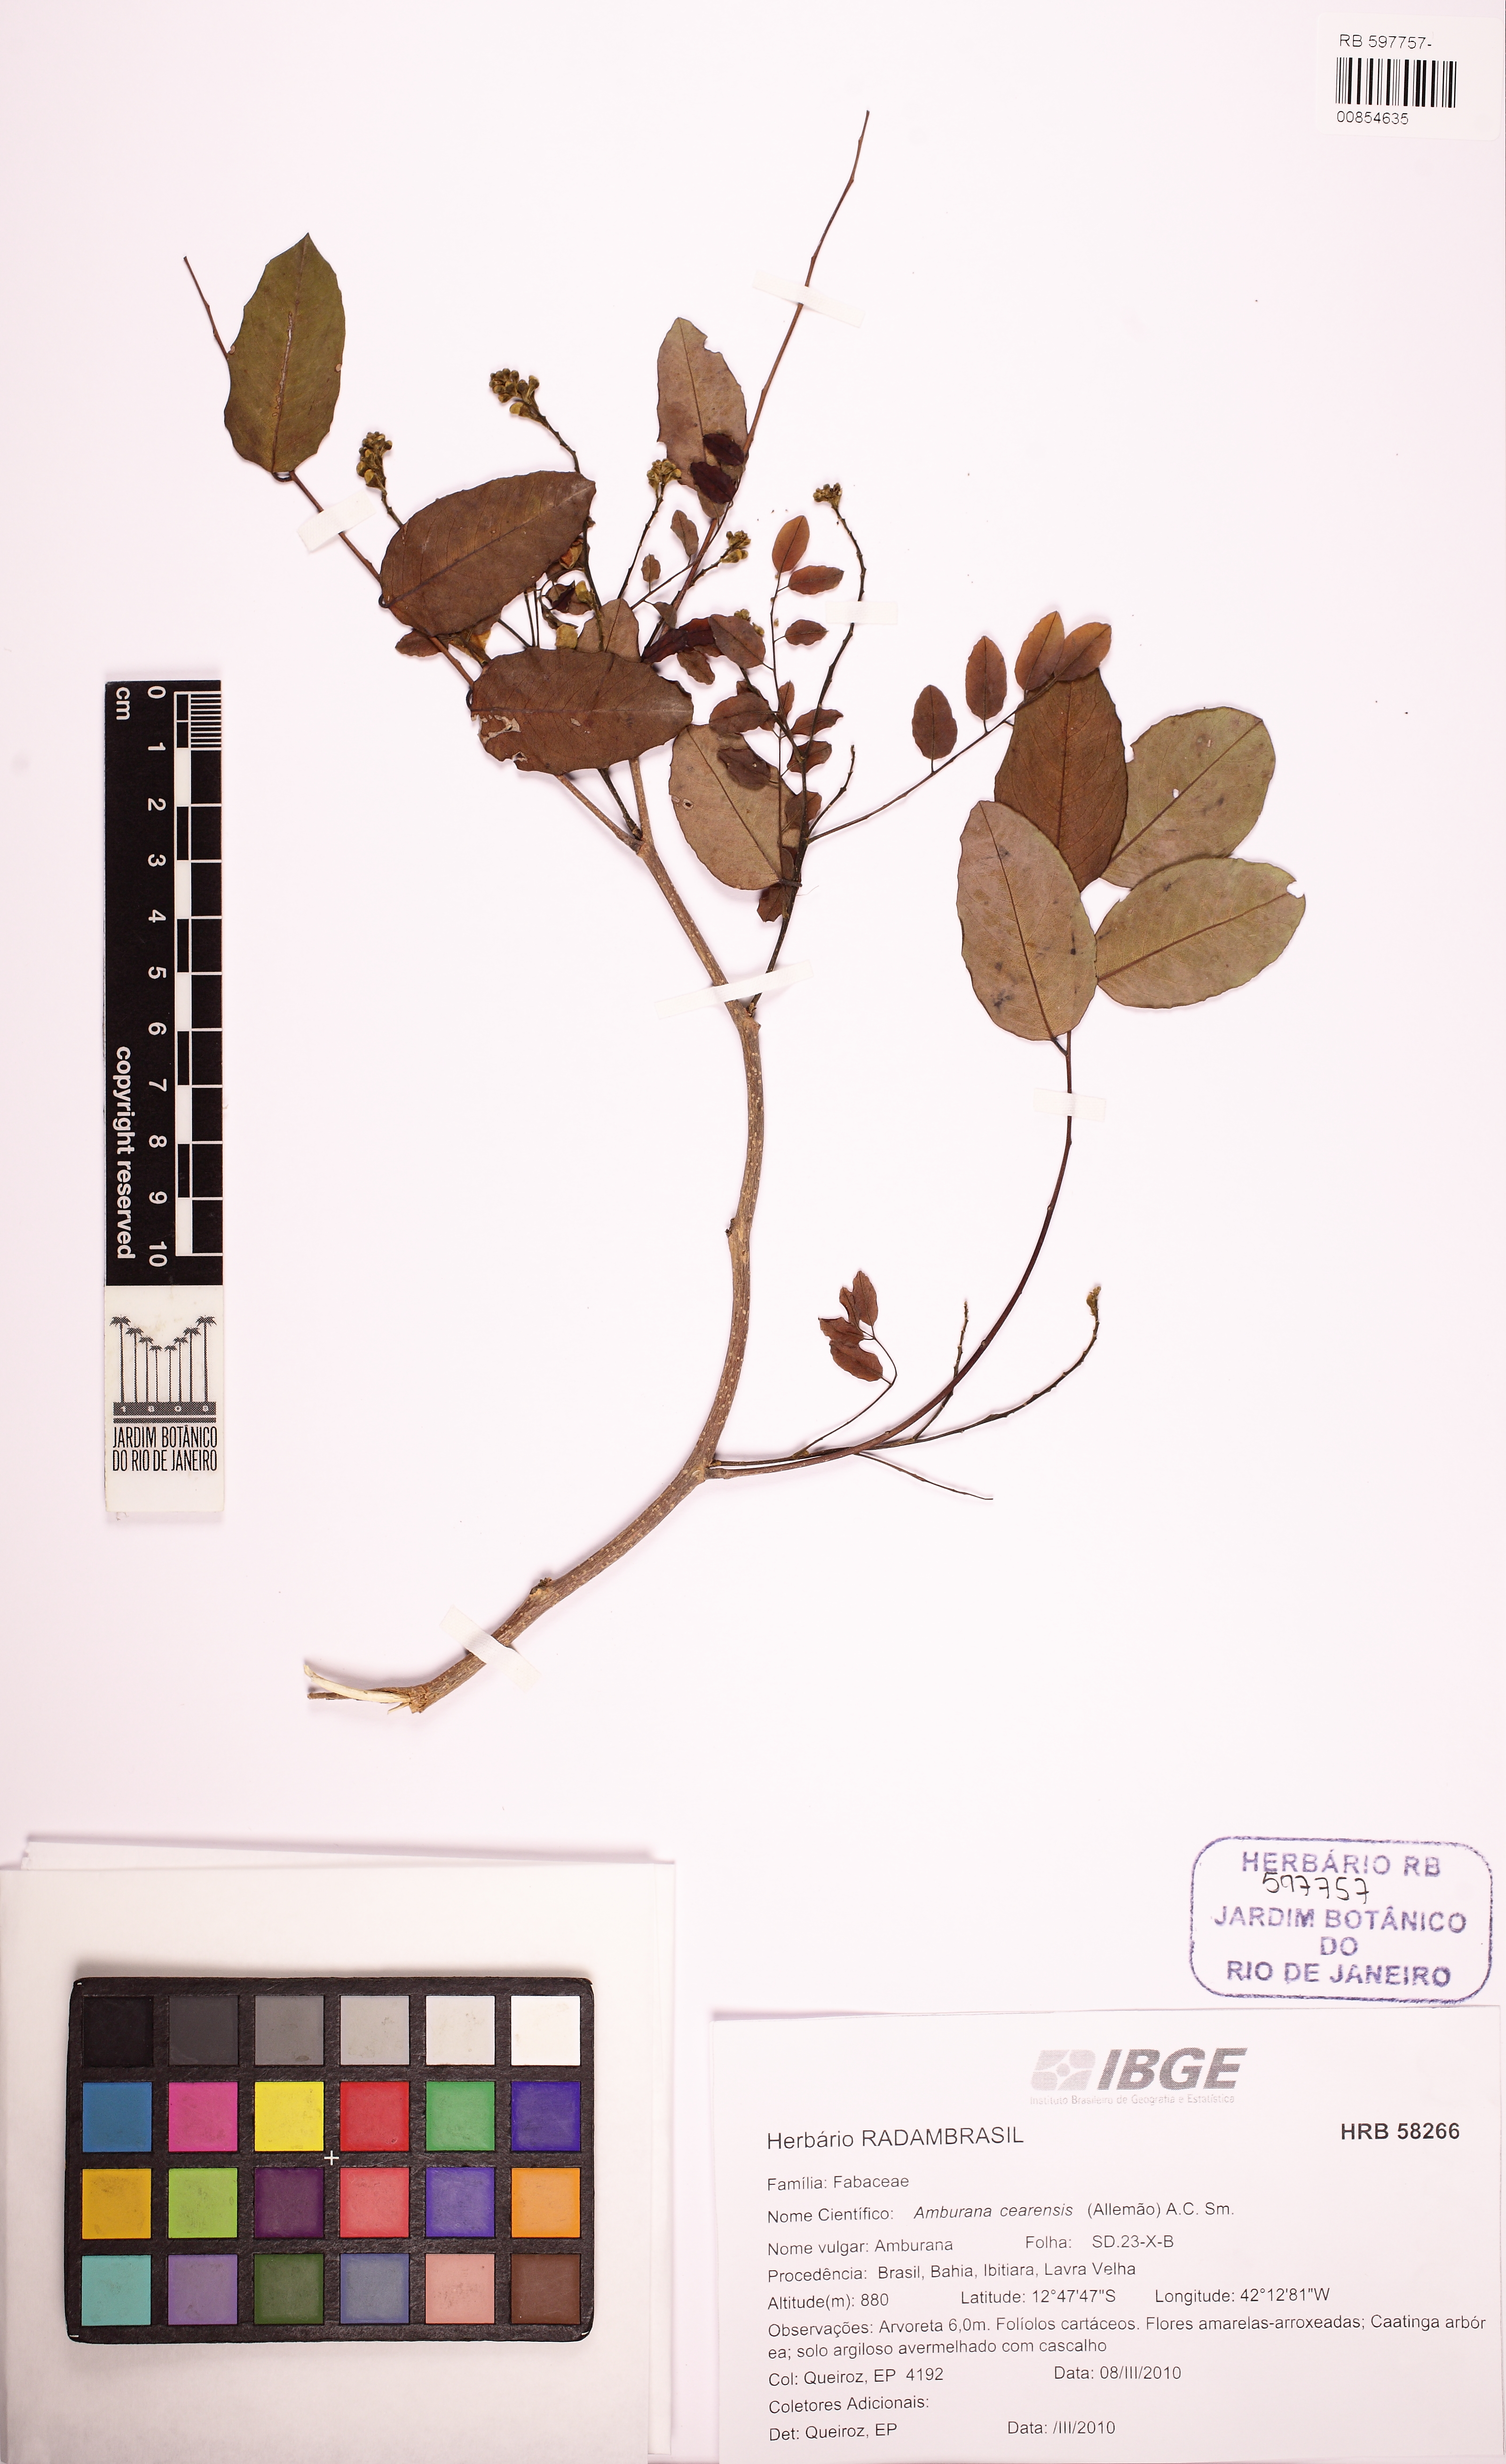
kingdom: Plantae
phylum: Tracheophyta
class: Magnoliopsida
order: Fabales
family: Fabaceae
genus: Amburana
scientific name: Amburana cearensis
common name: Cerejeira
